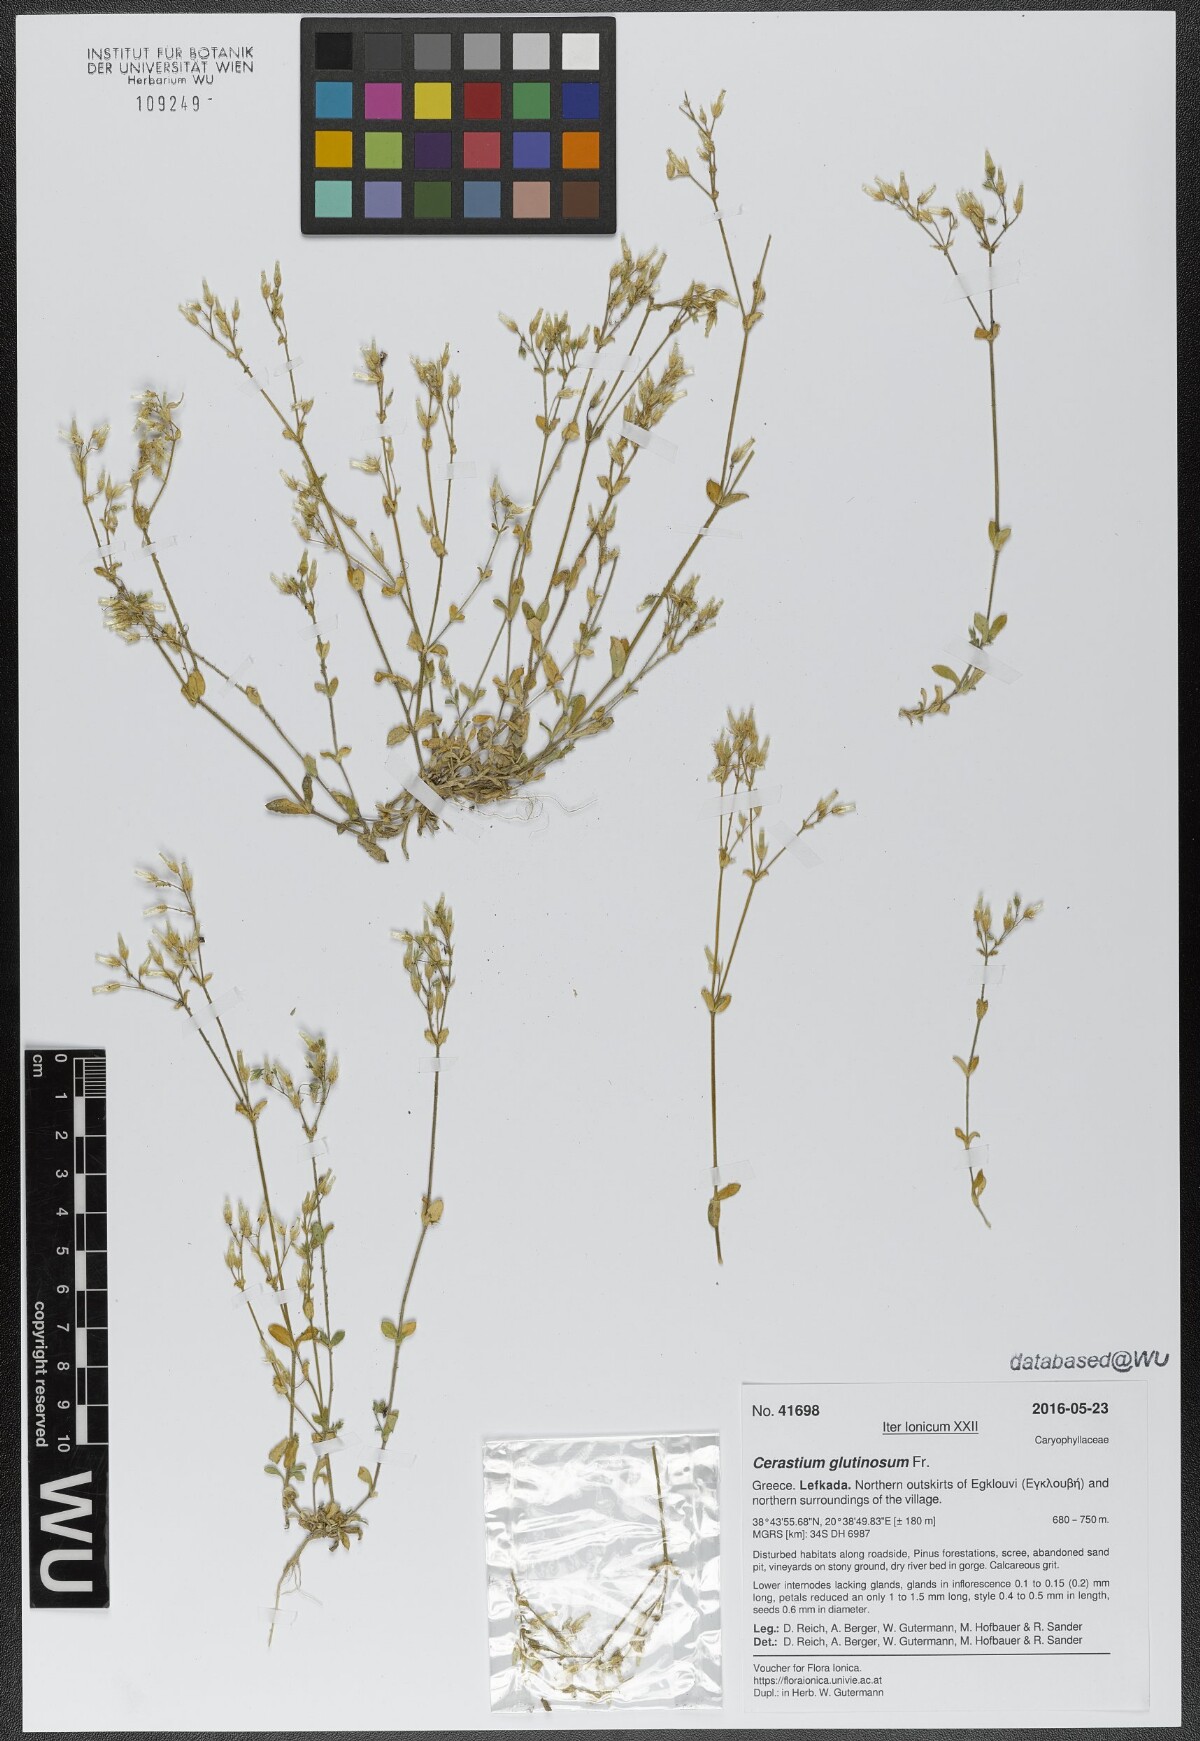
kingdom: Plantae
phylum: Tracheophyta
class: Magnoliopsida
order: Caryophyllales
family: Caryophyllaceae
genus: Cerastium
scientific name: Cerastium glutinosum
